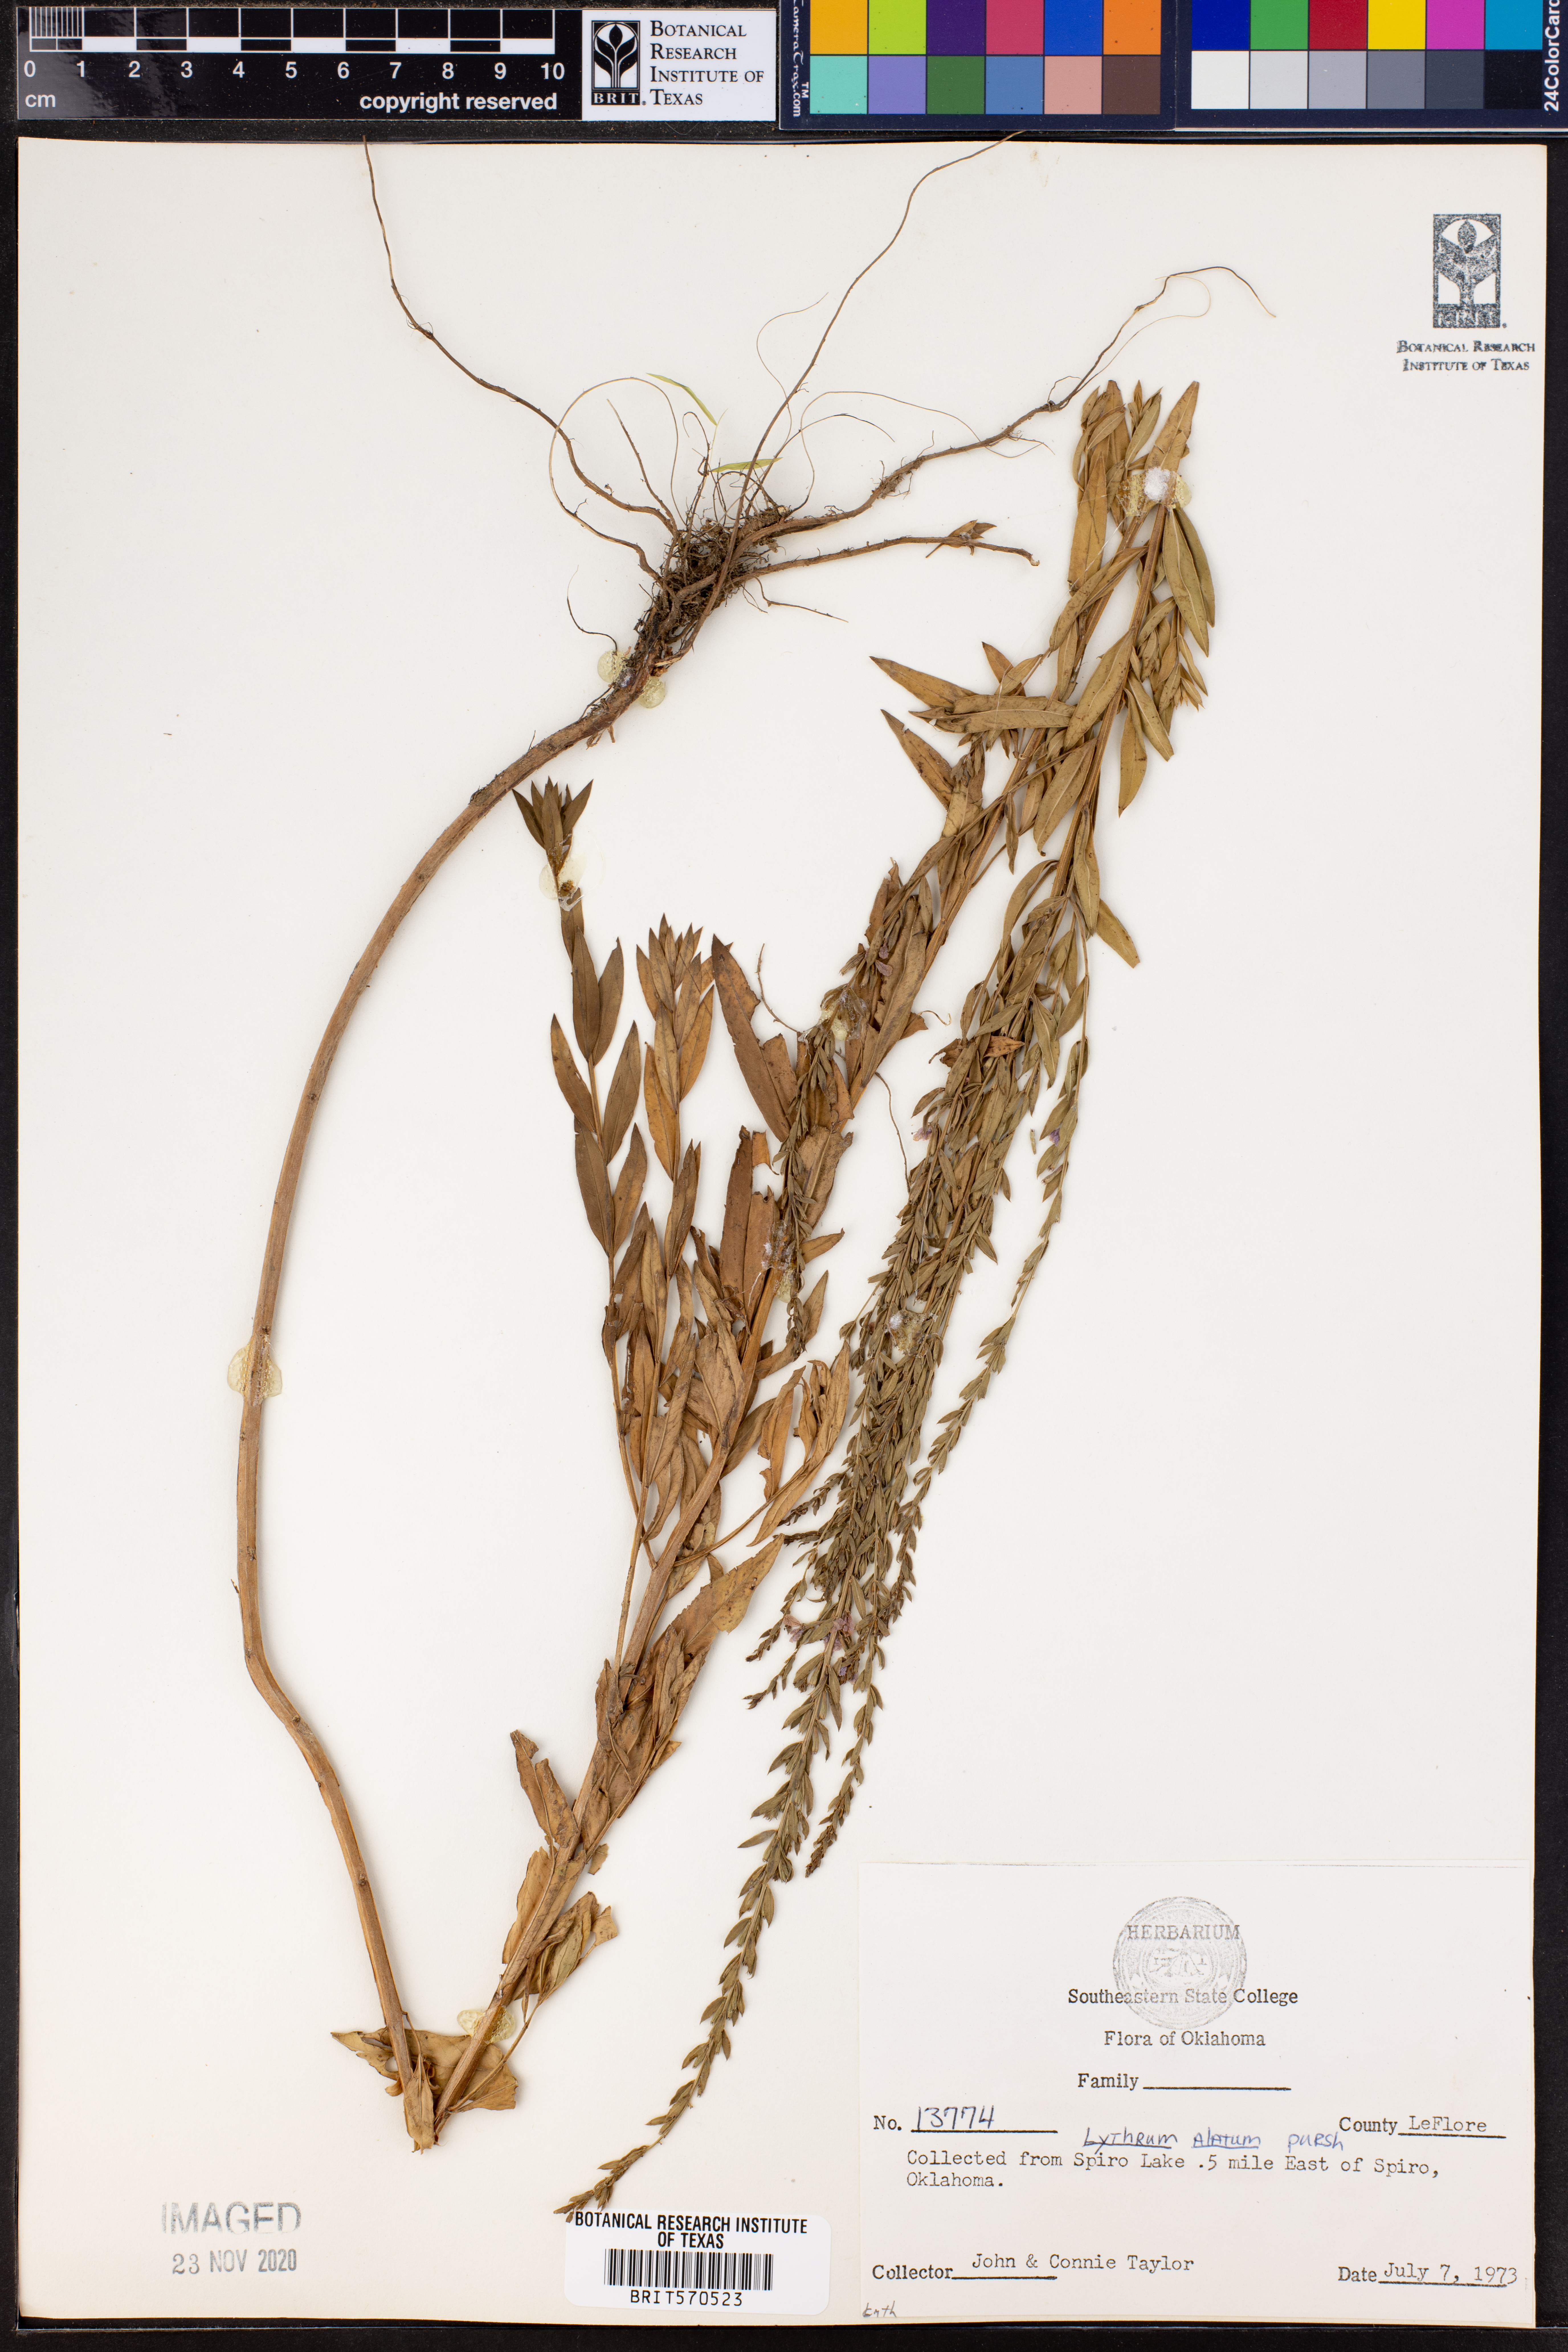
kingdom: Plantae
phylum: Tracheophyta
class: Magnoliopsida
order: Myrtales
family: Lythraceae
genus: Lythrum
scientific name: Lythrum alatum
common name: Winged loosestrife
